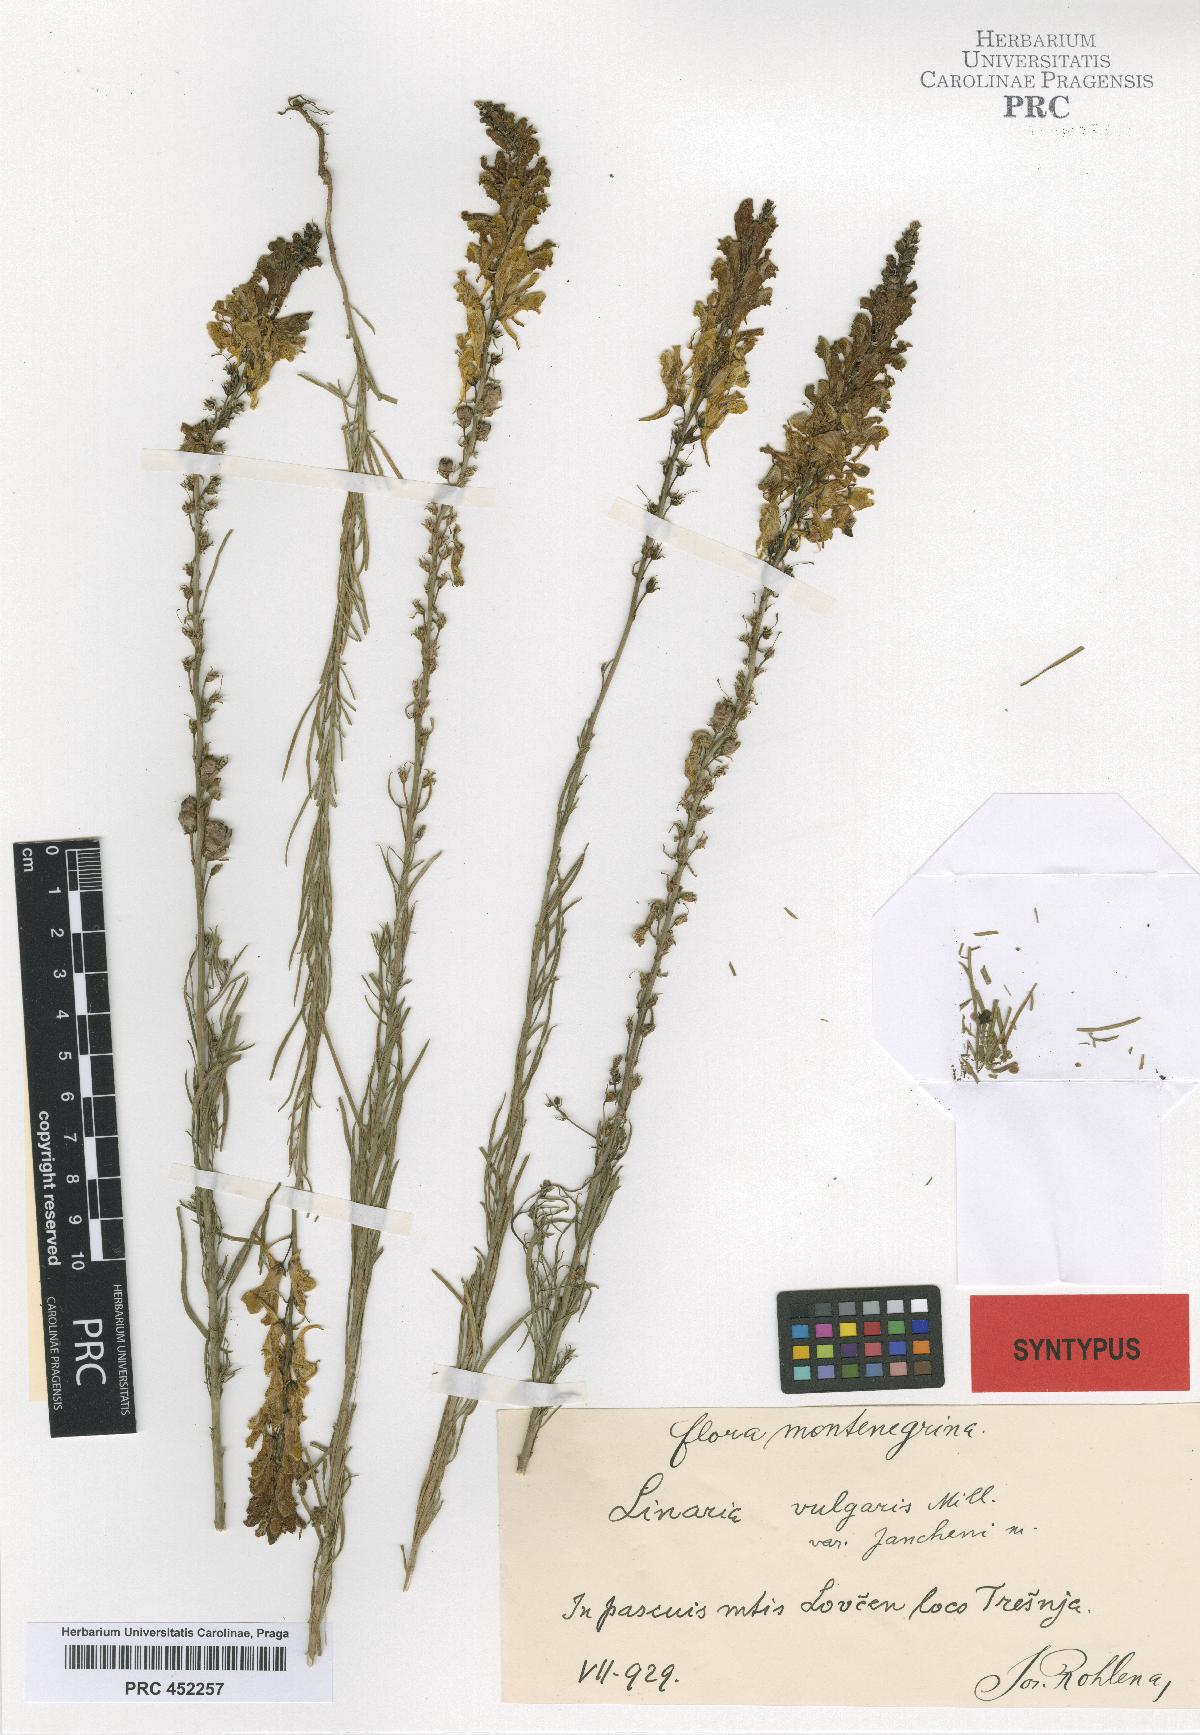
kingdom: Plantae
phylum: Tracheophyta
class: Magnoliopsida
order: Lamiales
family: Plantaginaceae
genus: Linaria
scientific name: Linaria vulgaris
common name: Butter and eggs
